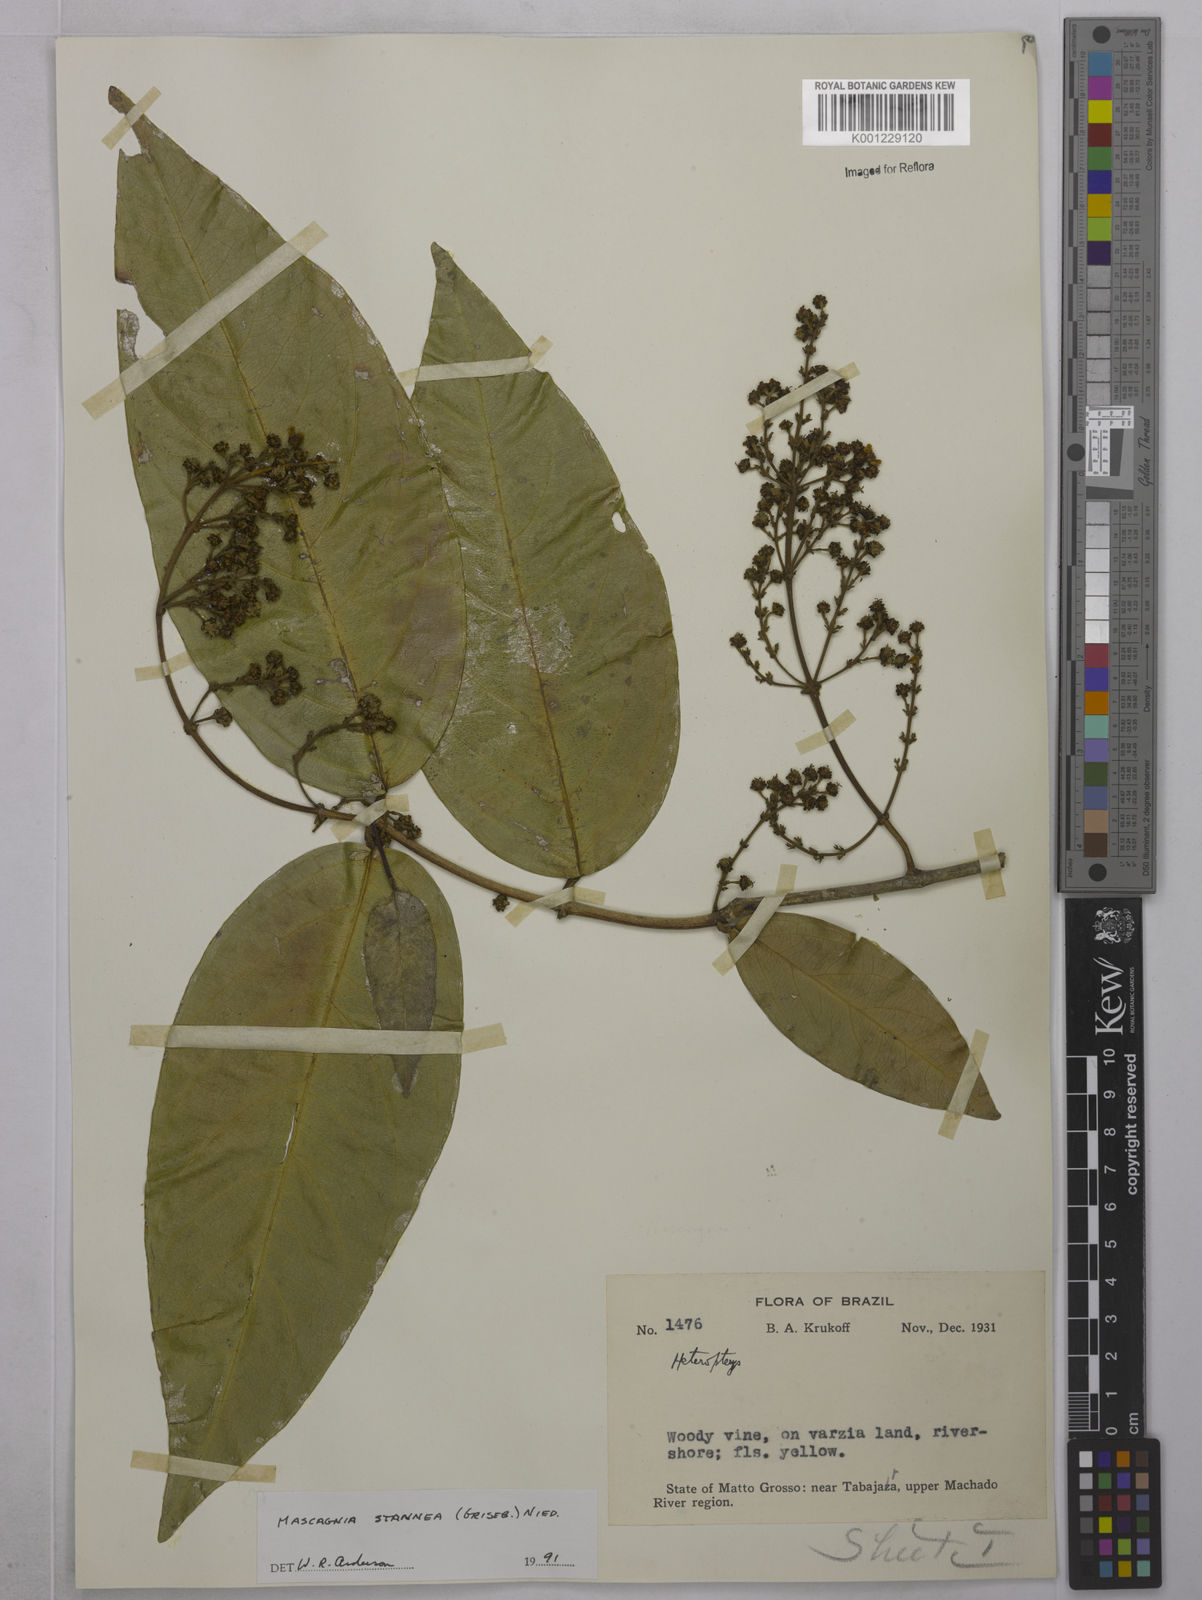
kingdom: Plantae
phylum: Tracheophyta
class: Magnoliopsida
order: Malpighiales
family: Malpighiaceae
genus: Niedenzuella
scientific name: Niedenzuella stannea
